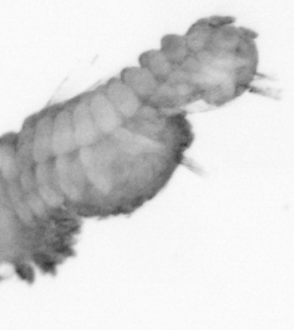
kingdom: Animalia
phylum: Annelida
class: Polychaeta
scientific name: Polychaeta
